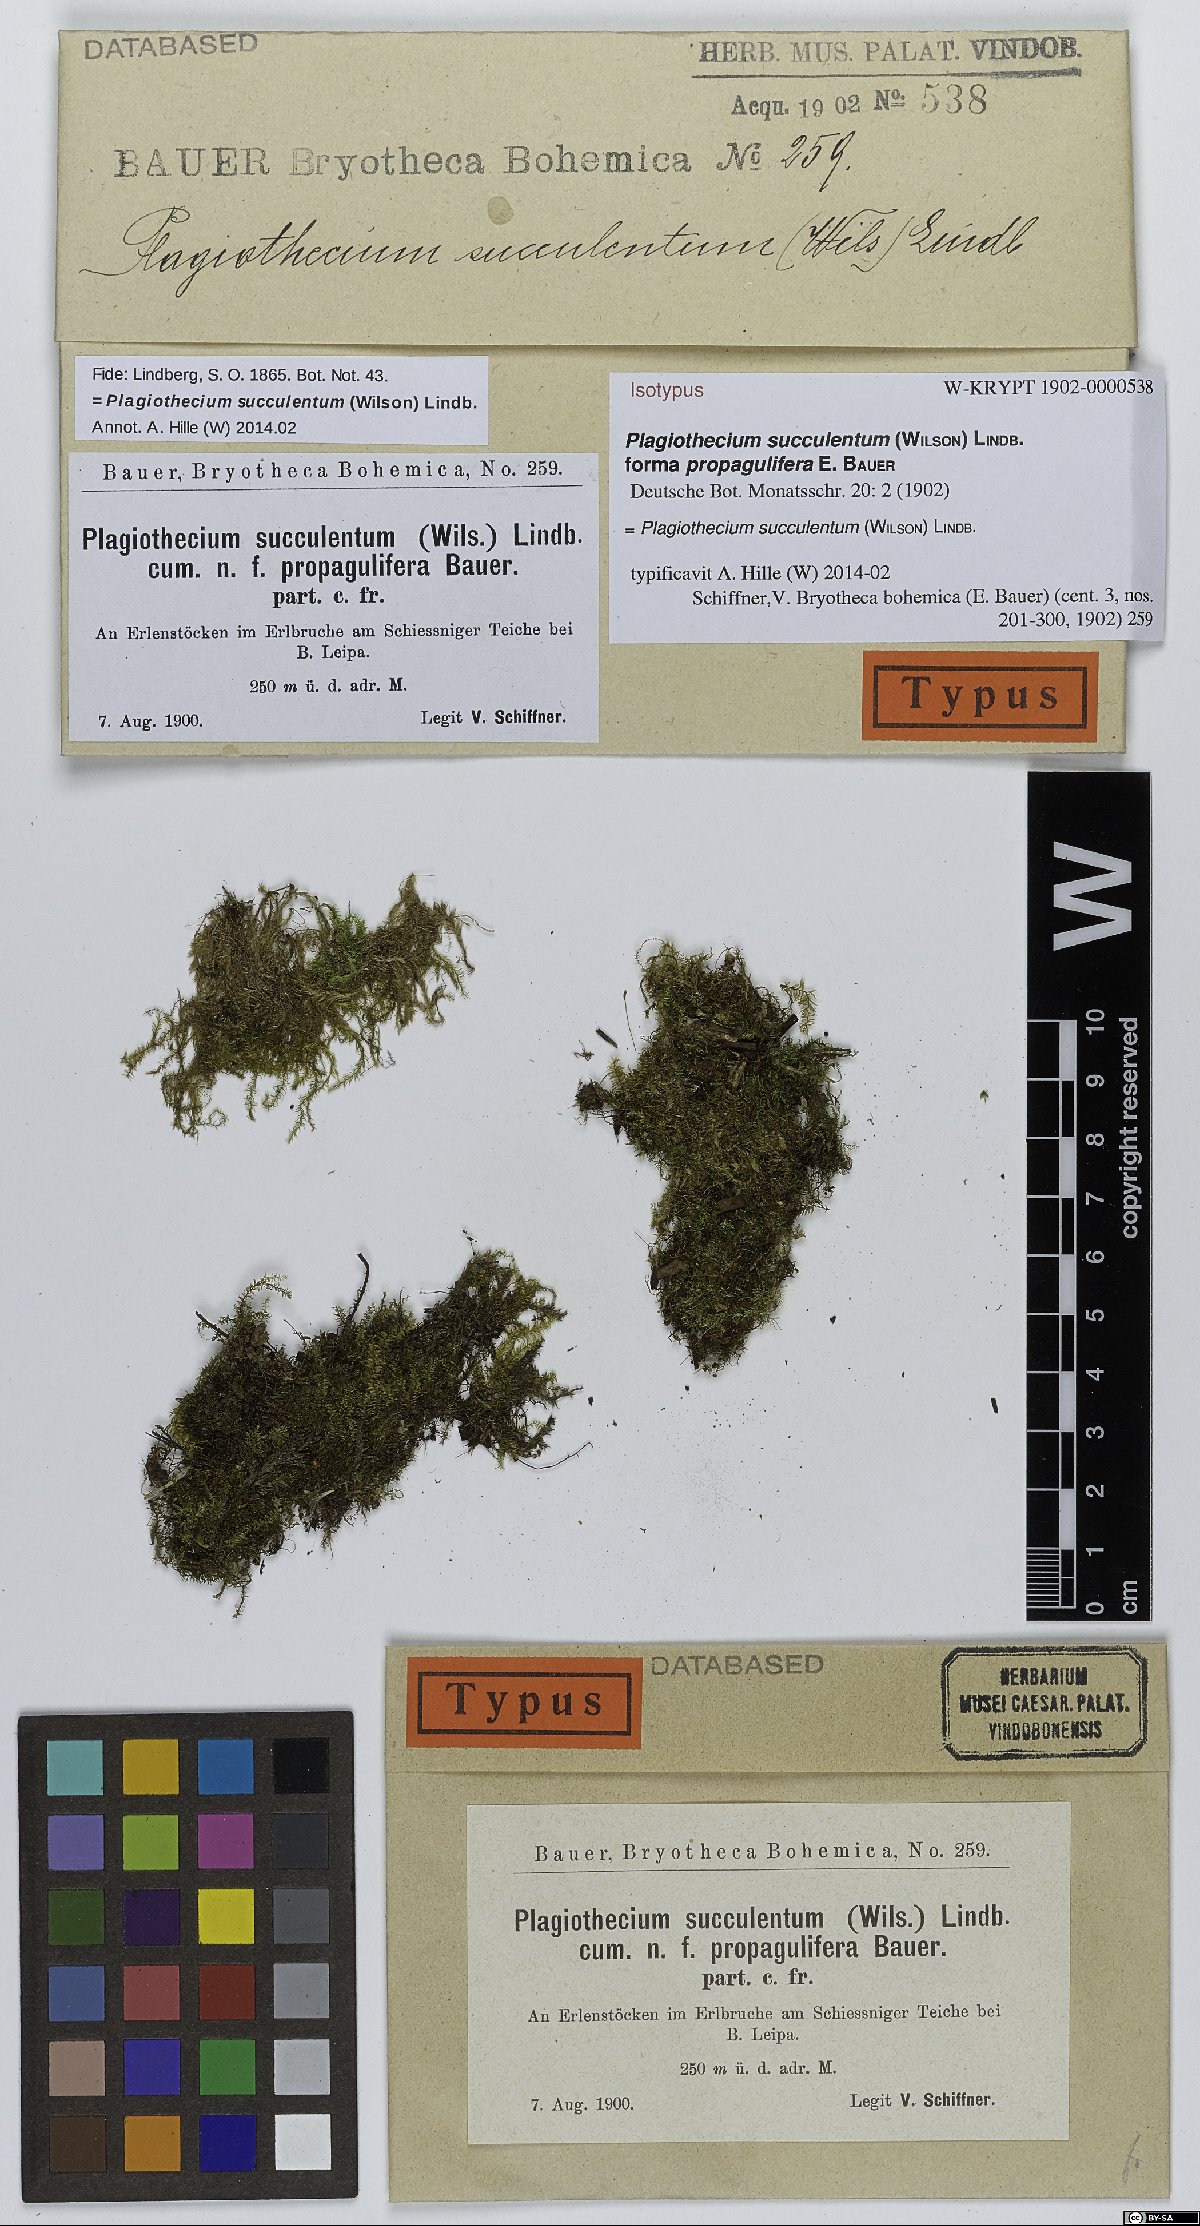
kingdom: Plantae
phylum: Bryophyta
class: Bryopsida
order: Hypnales
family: Plagiotheciaceae
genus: Plagiothecium
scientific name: Plagiothecium succulentum
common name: Juicy silk-moss
